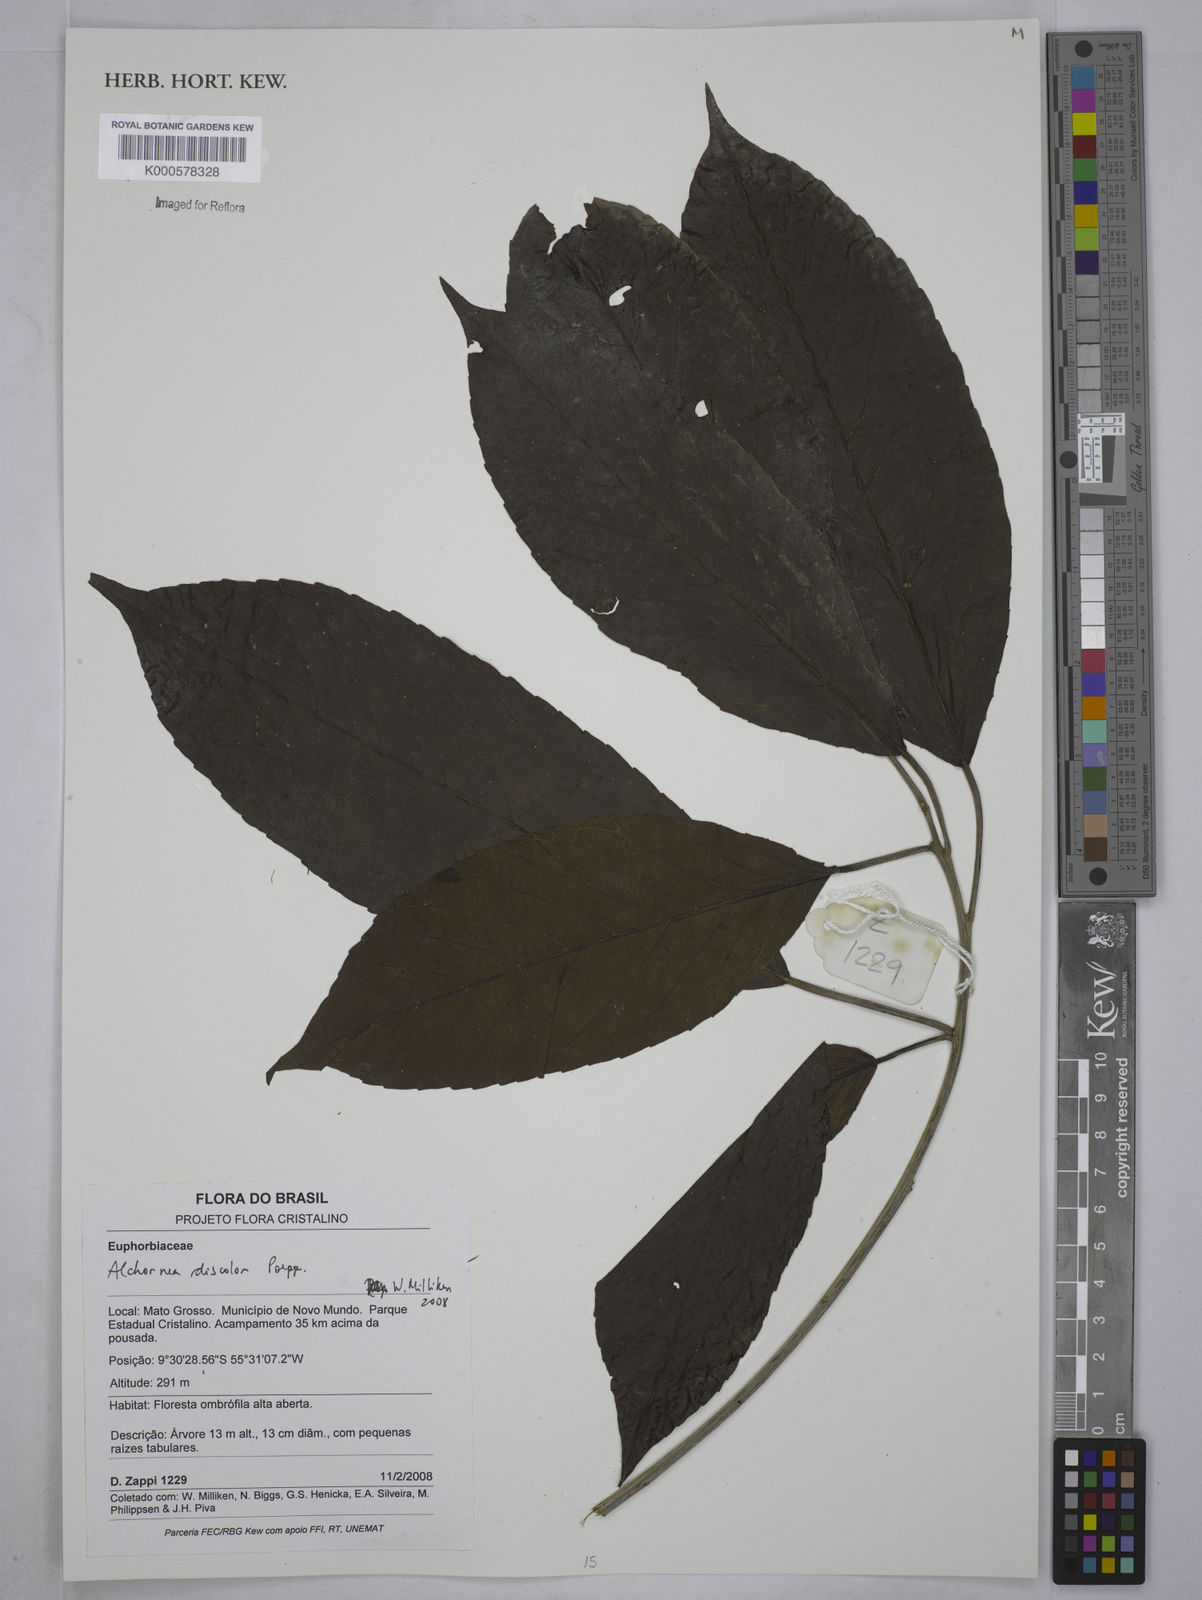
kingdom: Plantae
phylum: Tracheophyta
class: Magnoliopsida
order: Malpighiales
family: Euphorbiaceae
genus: Alchornea
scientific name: Alchornea discolor
